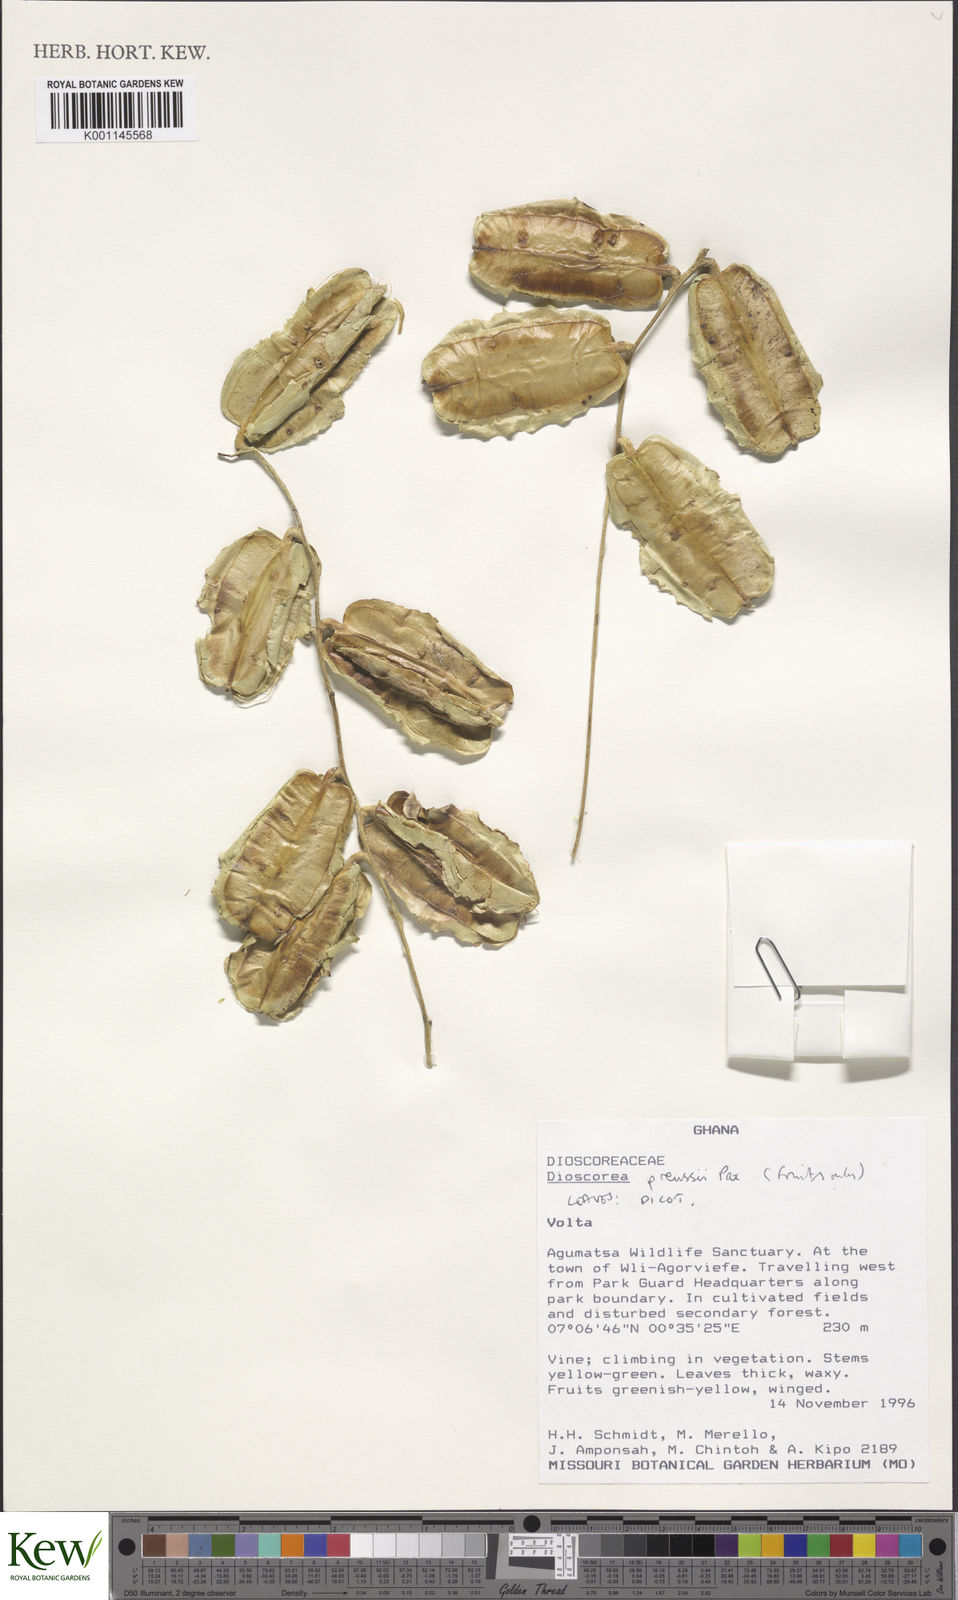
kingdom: Plantae
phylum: Tracheophyta
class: Liliopsida
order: Dioscoreales
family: Dioscoreaceae
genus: Dioscorea
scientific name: Dioscorea preussii
